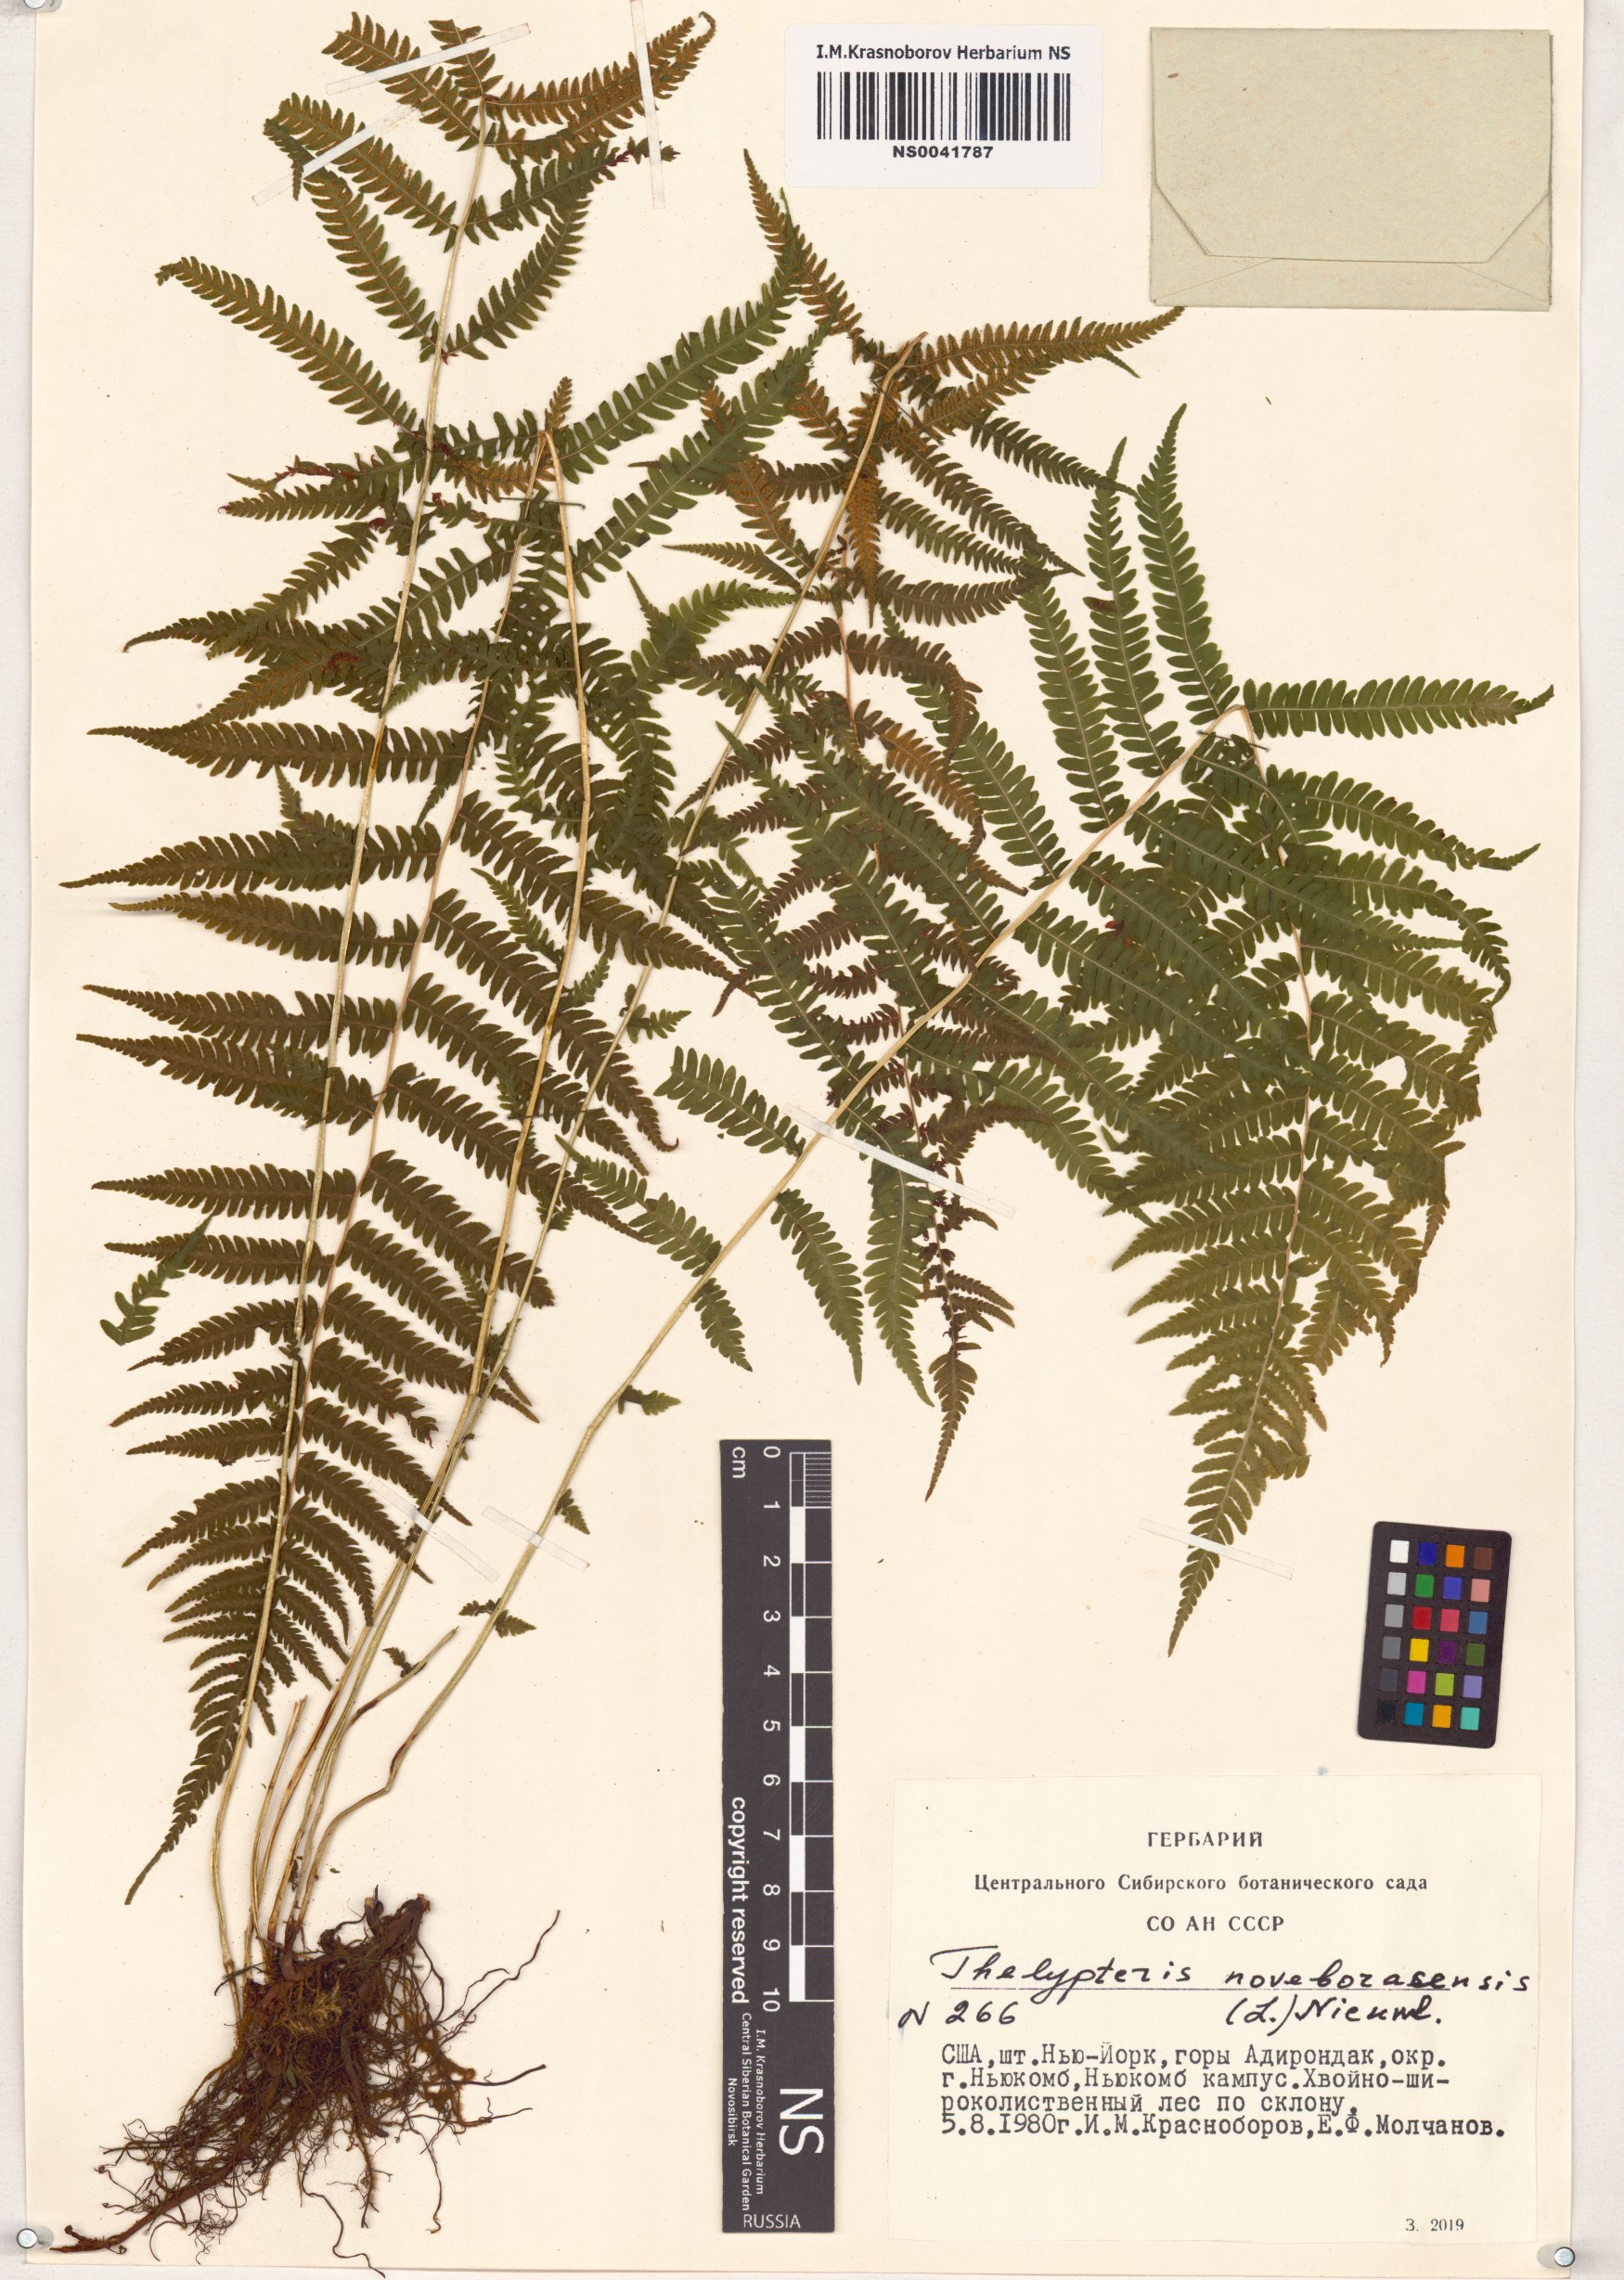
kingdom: Plantae
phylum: Tracheophyta
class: Polypodiopsida
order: Polypodiales
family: Thelypteridaceae
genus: Amauropelta
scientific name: Amauropelta noveboracensis
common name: New york fern
